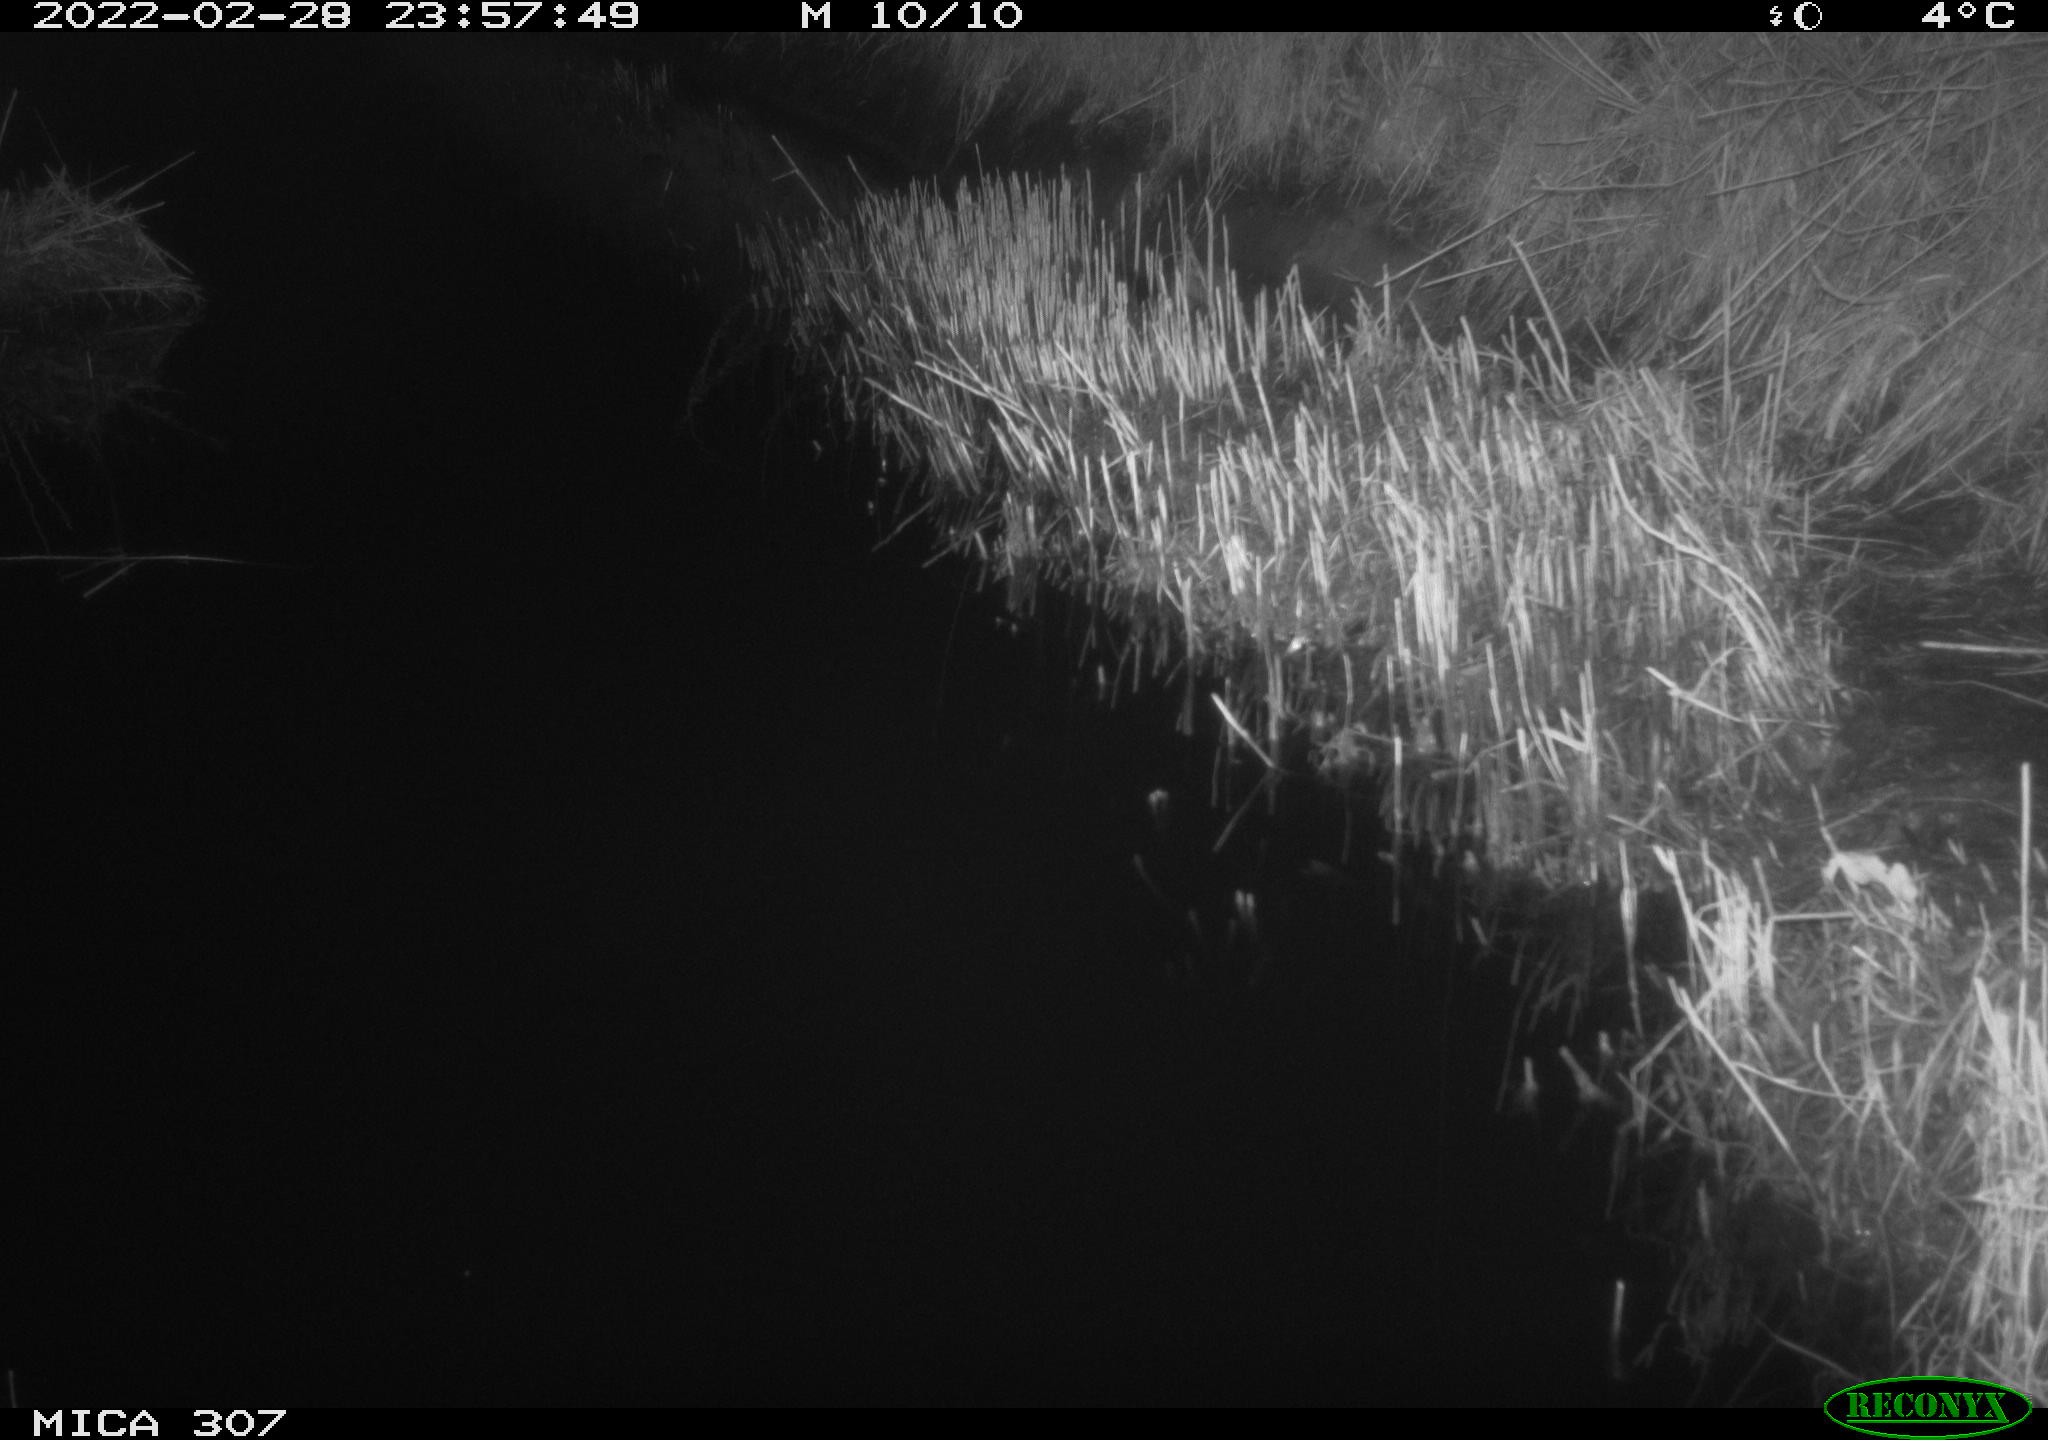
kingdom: Animalia
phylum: Chordata
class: Mammalia
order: Rodentia
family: Muridae
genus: Rattus
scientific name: Rattus norvegicus
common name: Brown rat
